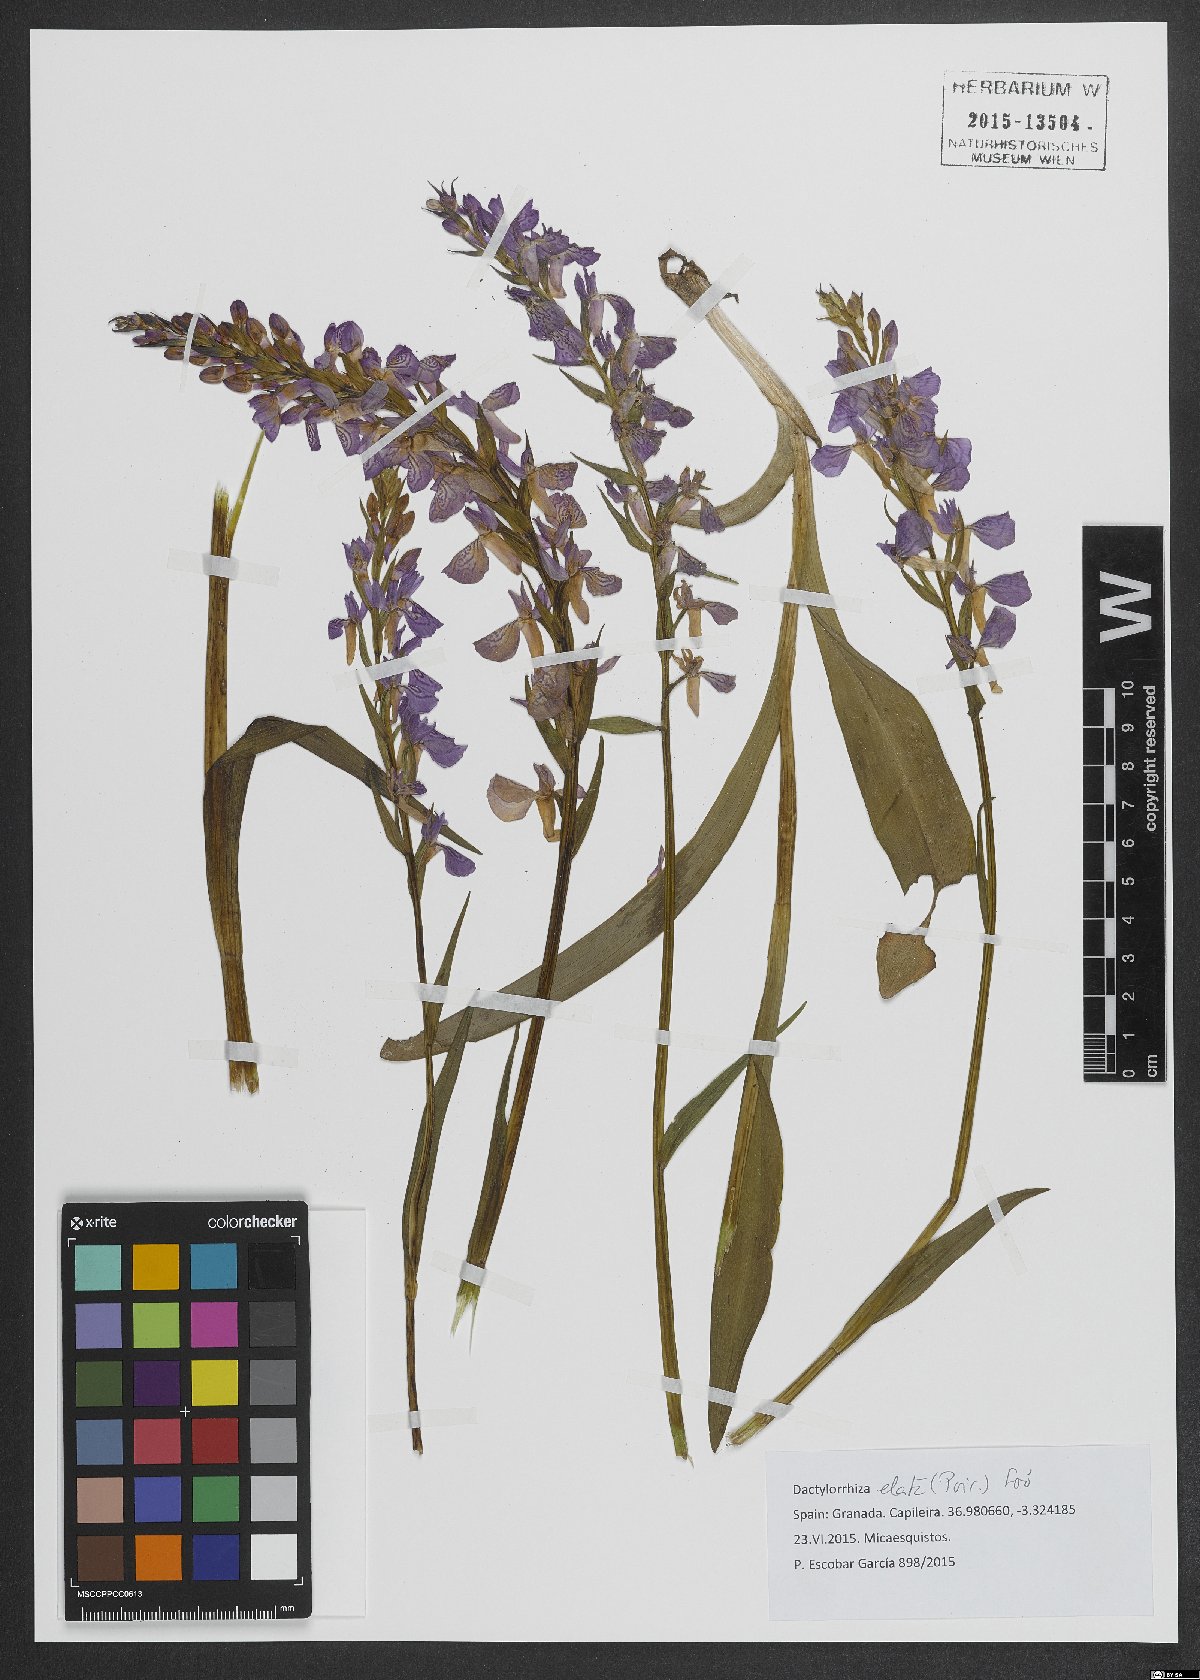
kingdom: Plantae
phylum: Tracheophyta
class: Liliopsida
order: Asparagales
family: Orchidaceae
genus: Dactylorhiza
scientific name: Dactylorhiza elata
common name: Stately dactylorhiza
